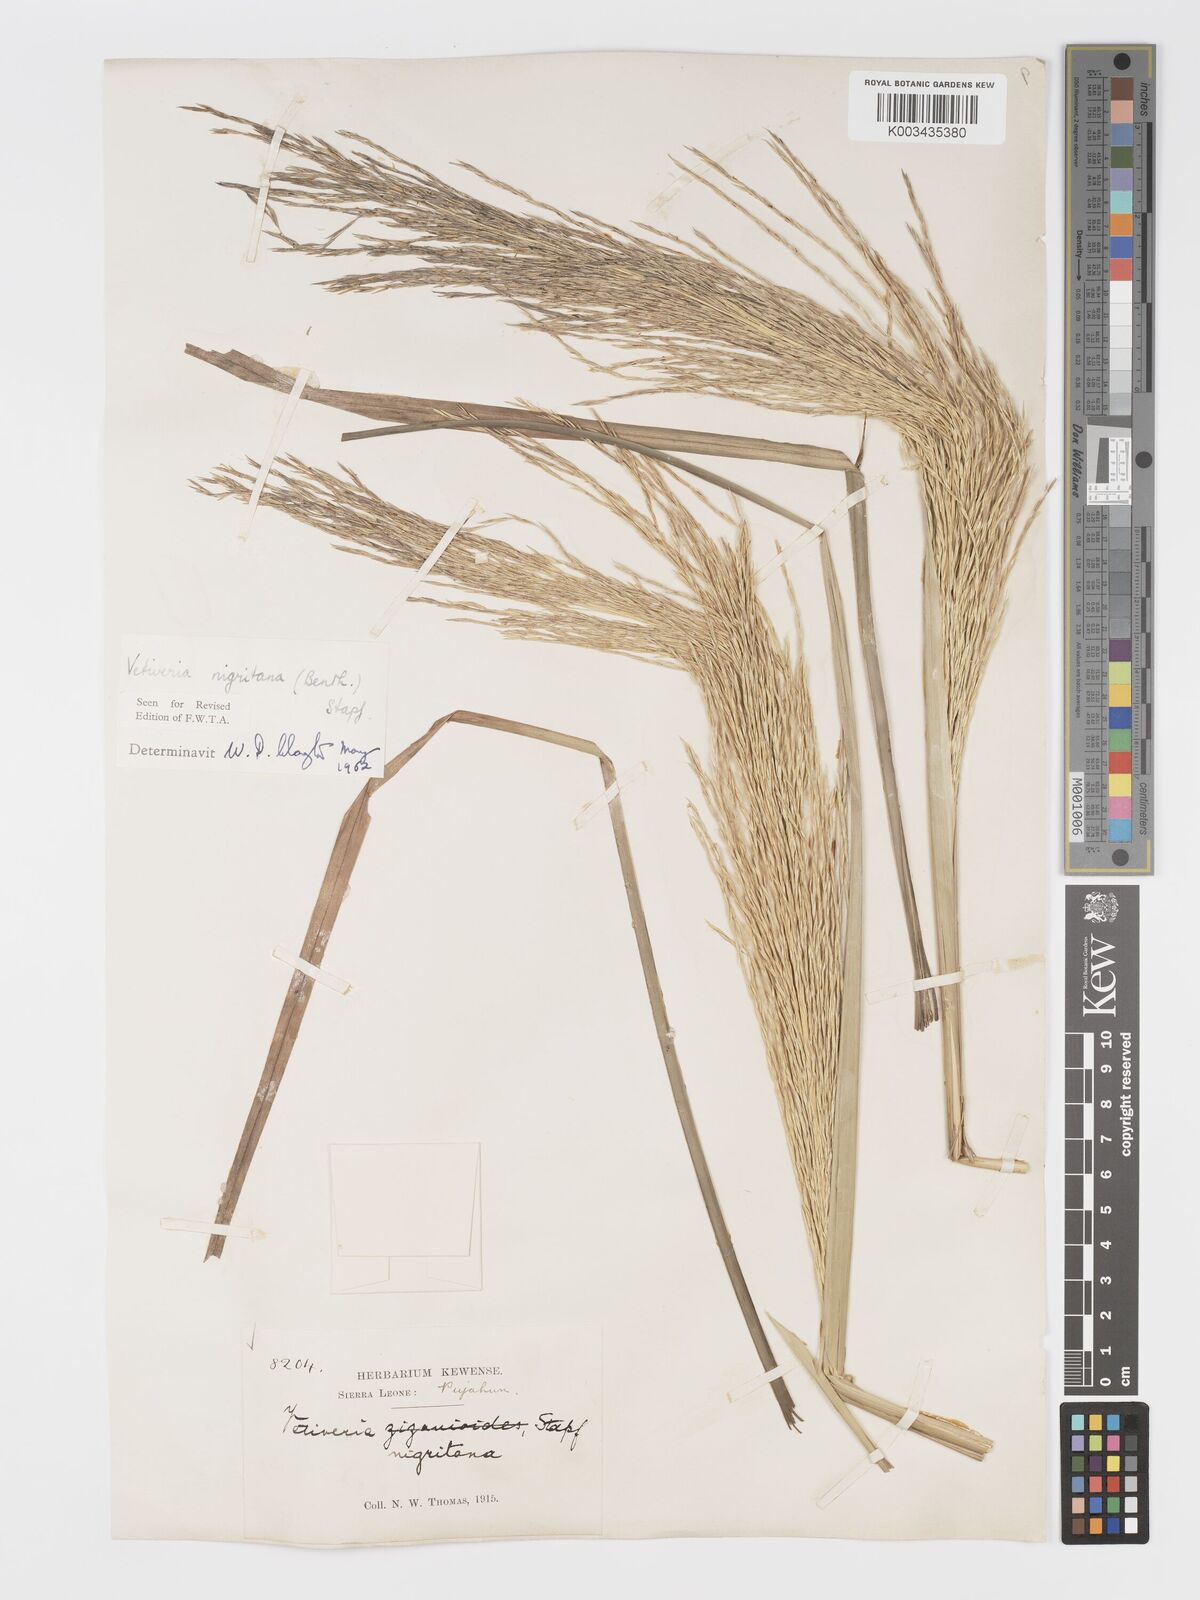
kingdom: Plantae
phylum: Tracheophyta
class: Liliopsida
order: Poales
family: Poaceae
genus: Chrysopogon
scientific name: Chrysopogon nigritanus
